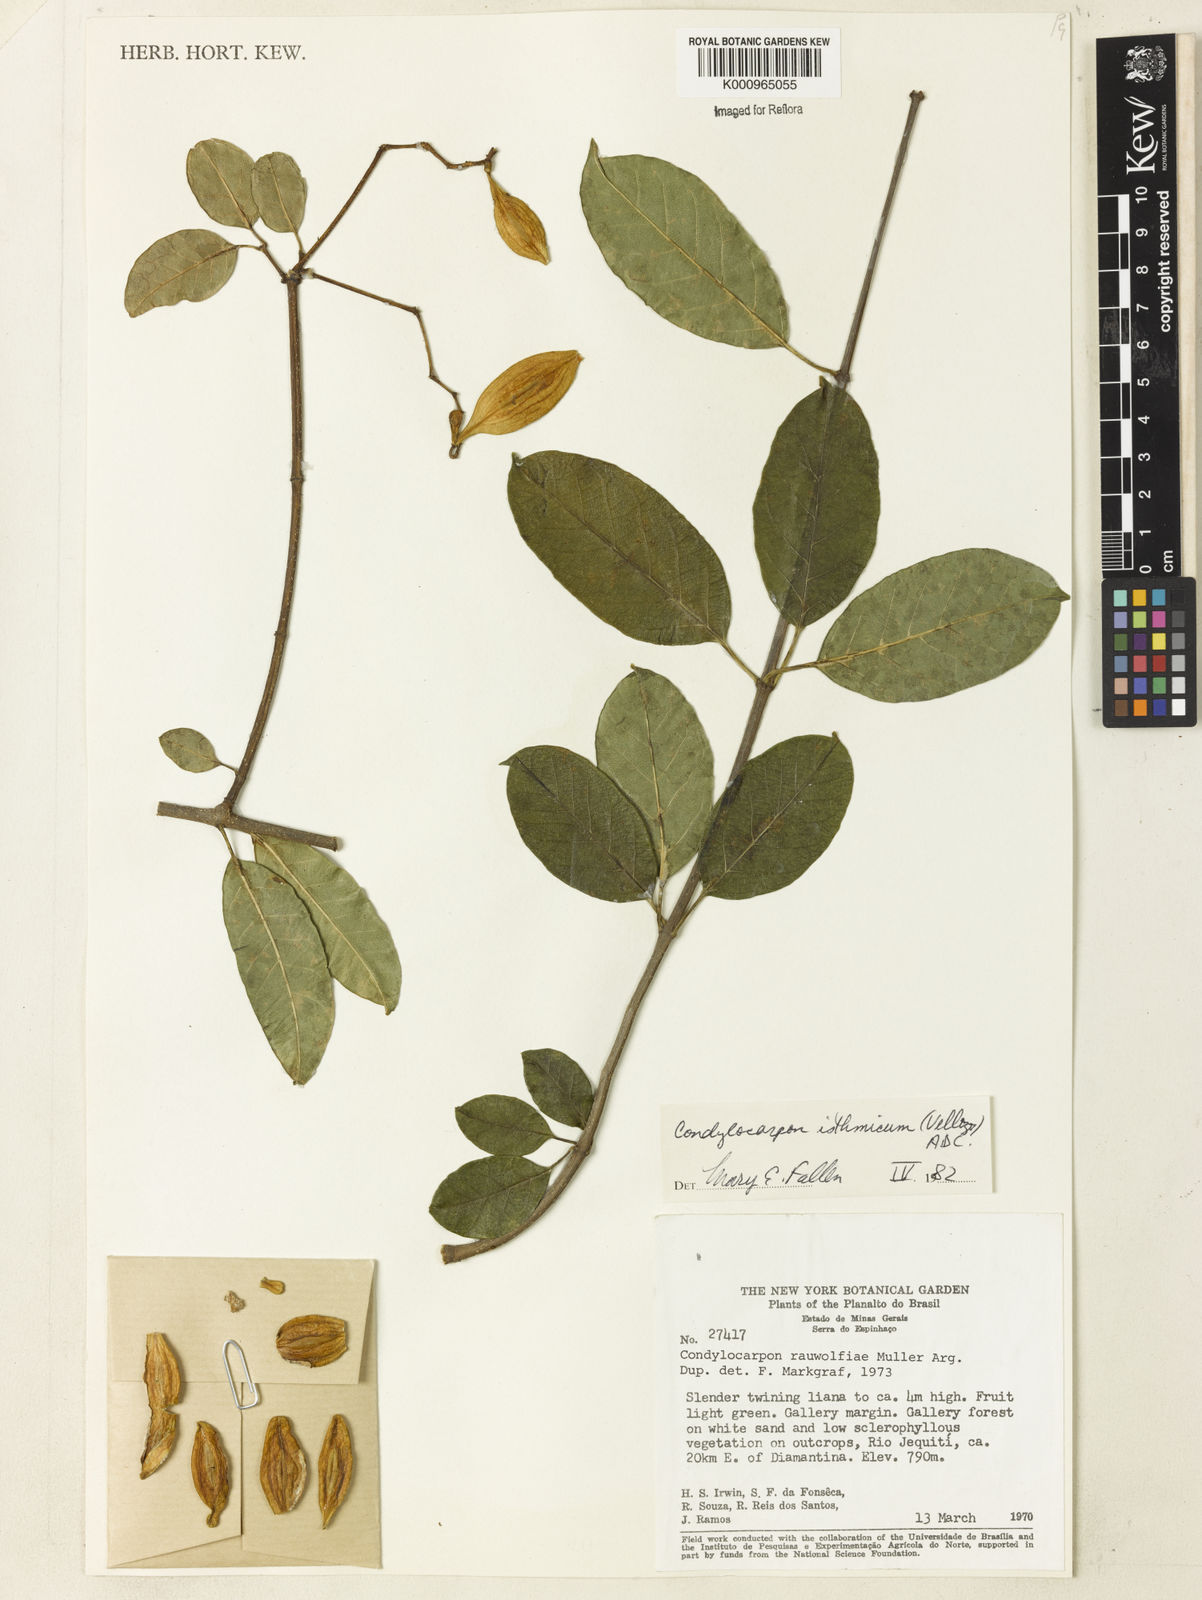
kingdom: Plantae
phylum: Tracheophyta
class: Magnoliopsida
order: Gentianales
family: Apocynaceae
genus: Condylocarpon
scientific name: Condylocarpon isthmicum
